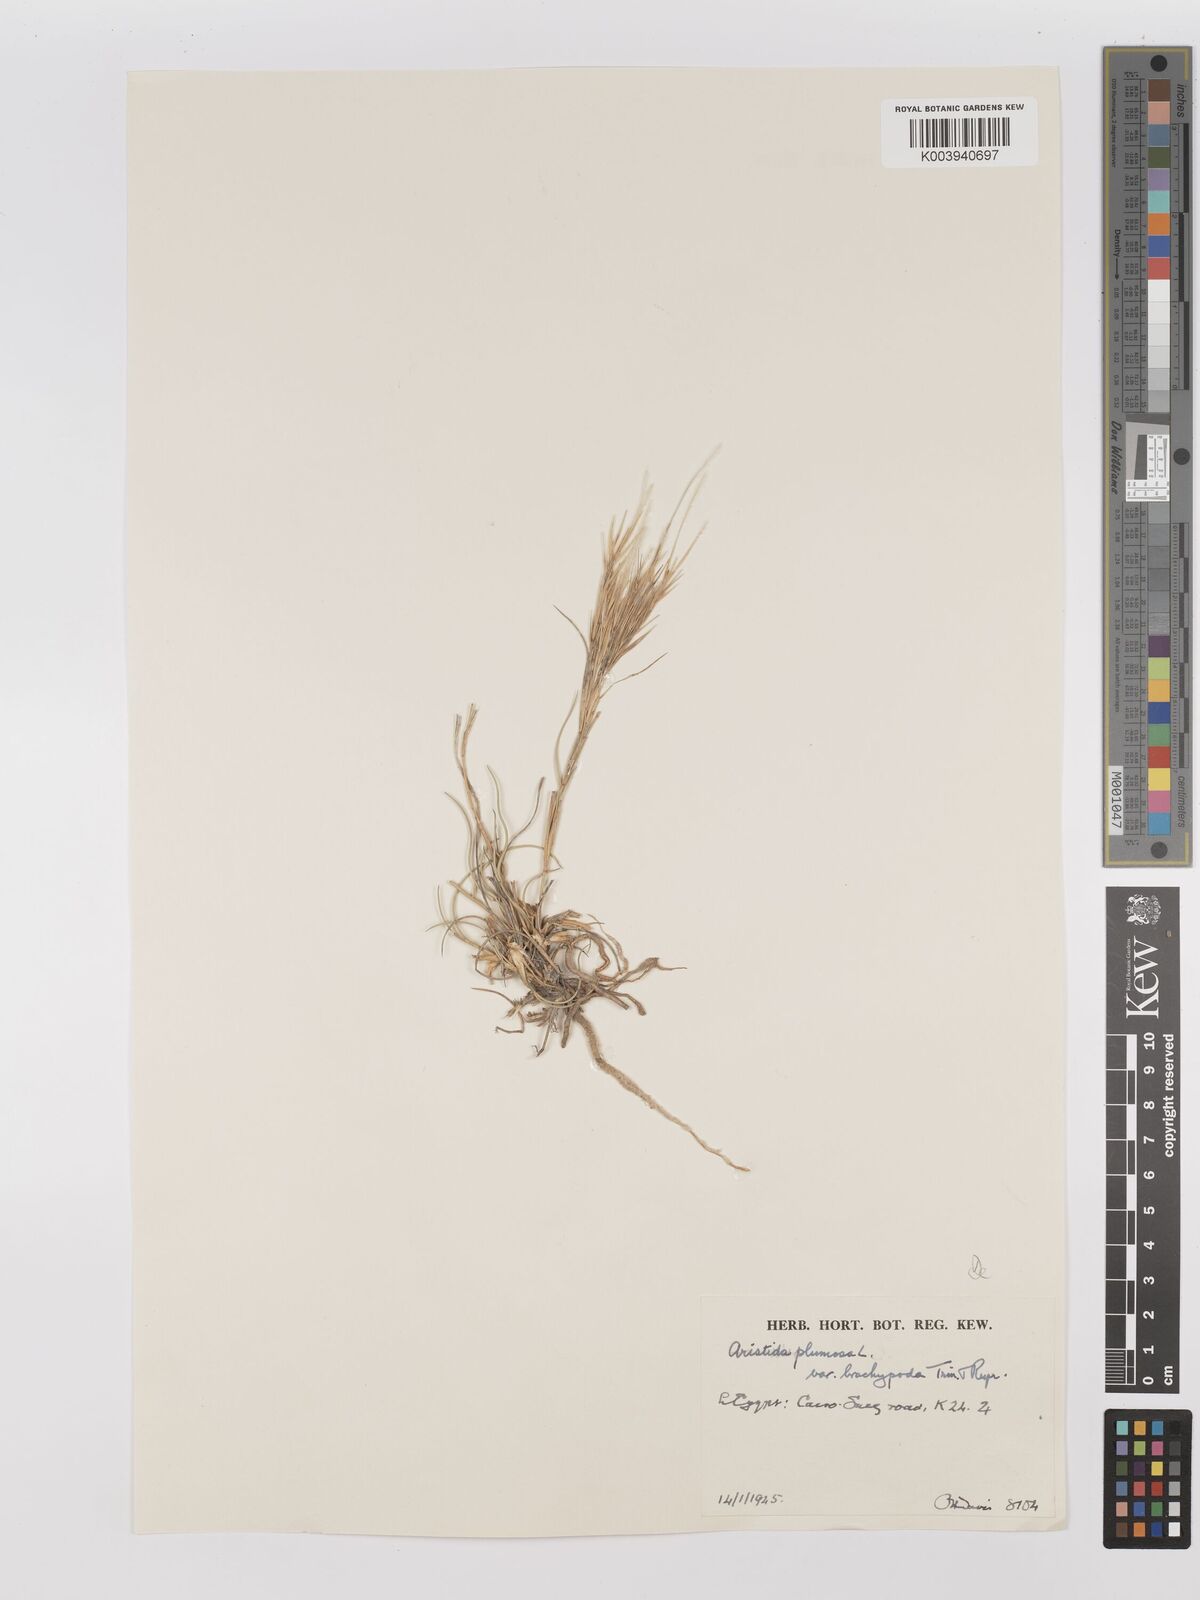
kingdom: Plantae
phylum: Tracheophyta
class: Liliopsida
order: Poales
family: Poaceae
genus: Stipagrostis
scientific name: Stipagrostis plumosa
